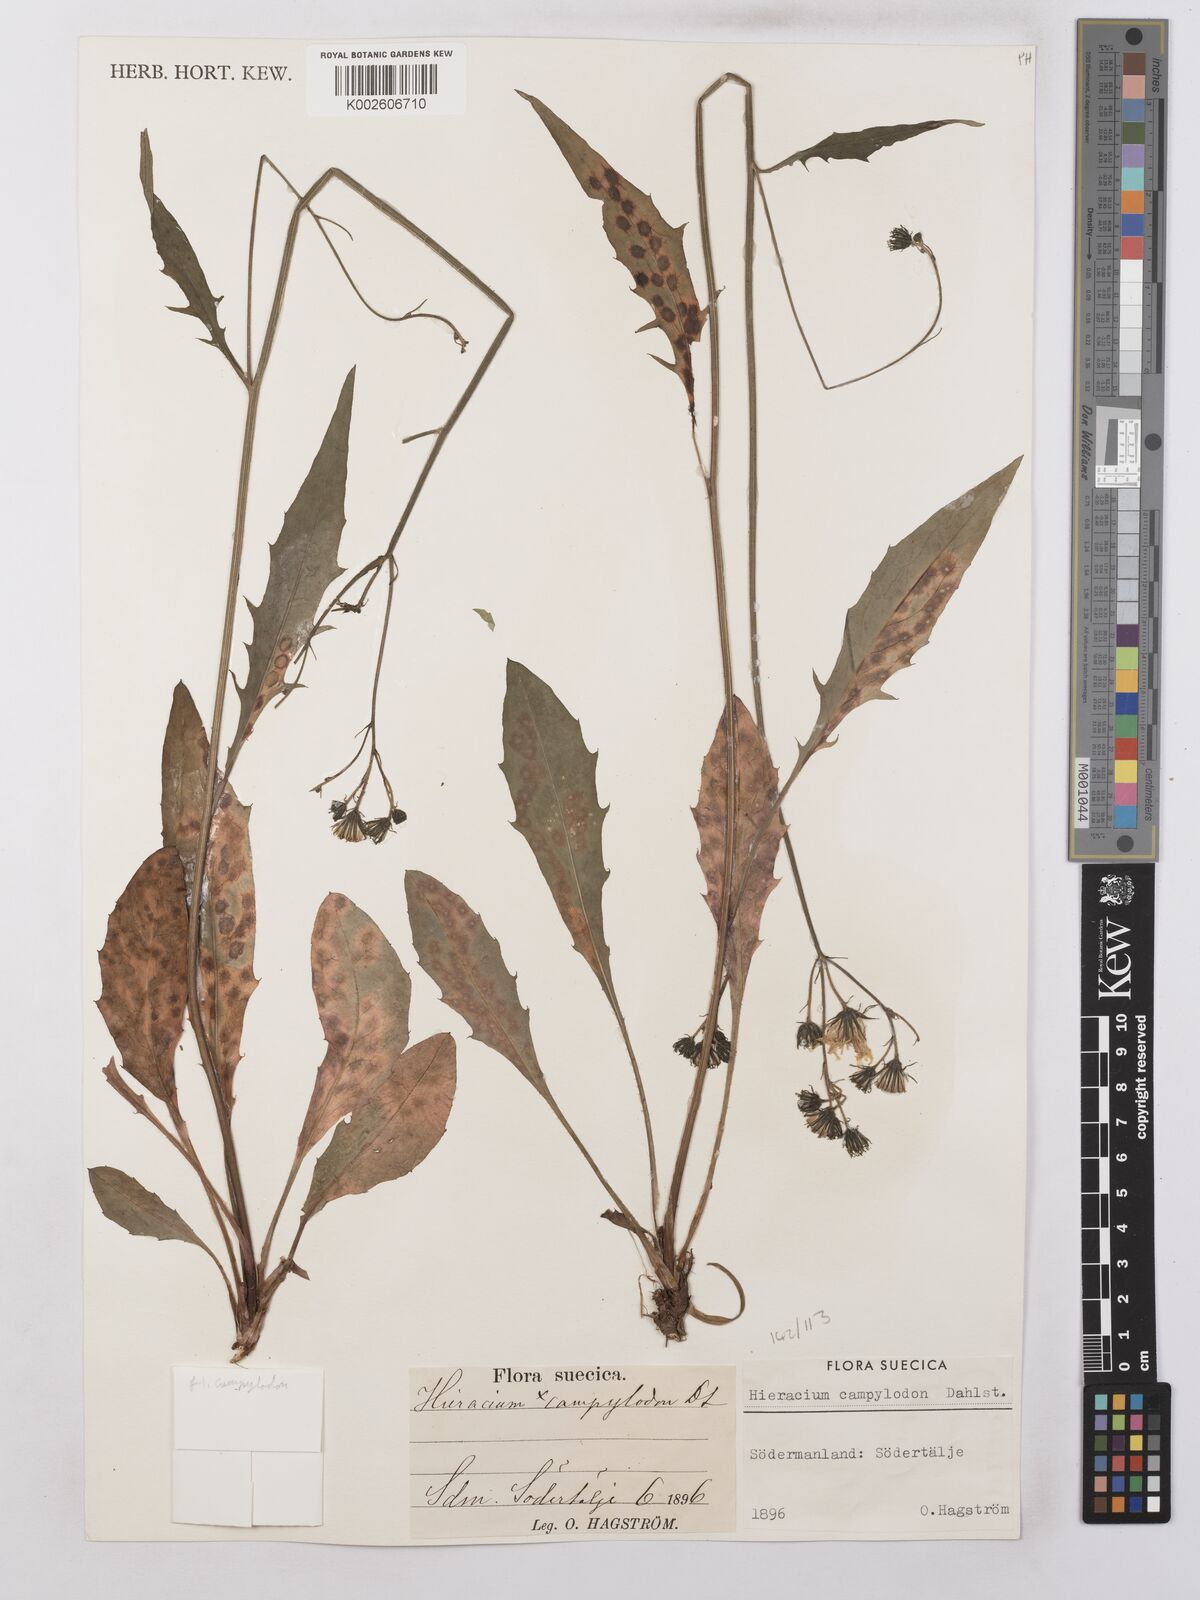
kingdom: Plantae
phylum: Tracheophyta
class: Magnoliopsida
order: Asterales
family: Asteraceae
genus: Hieracium
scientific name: Hieracium lachenalii
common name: Common hawkweed
